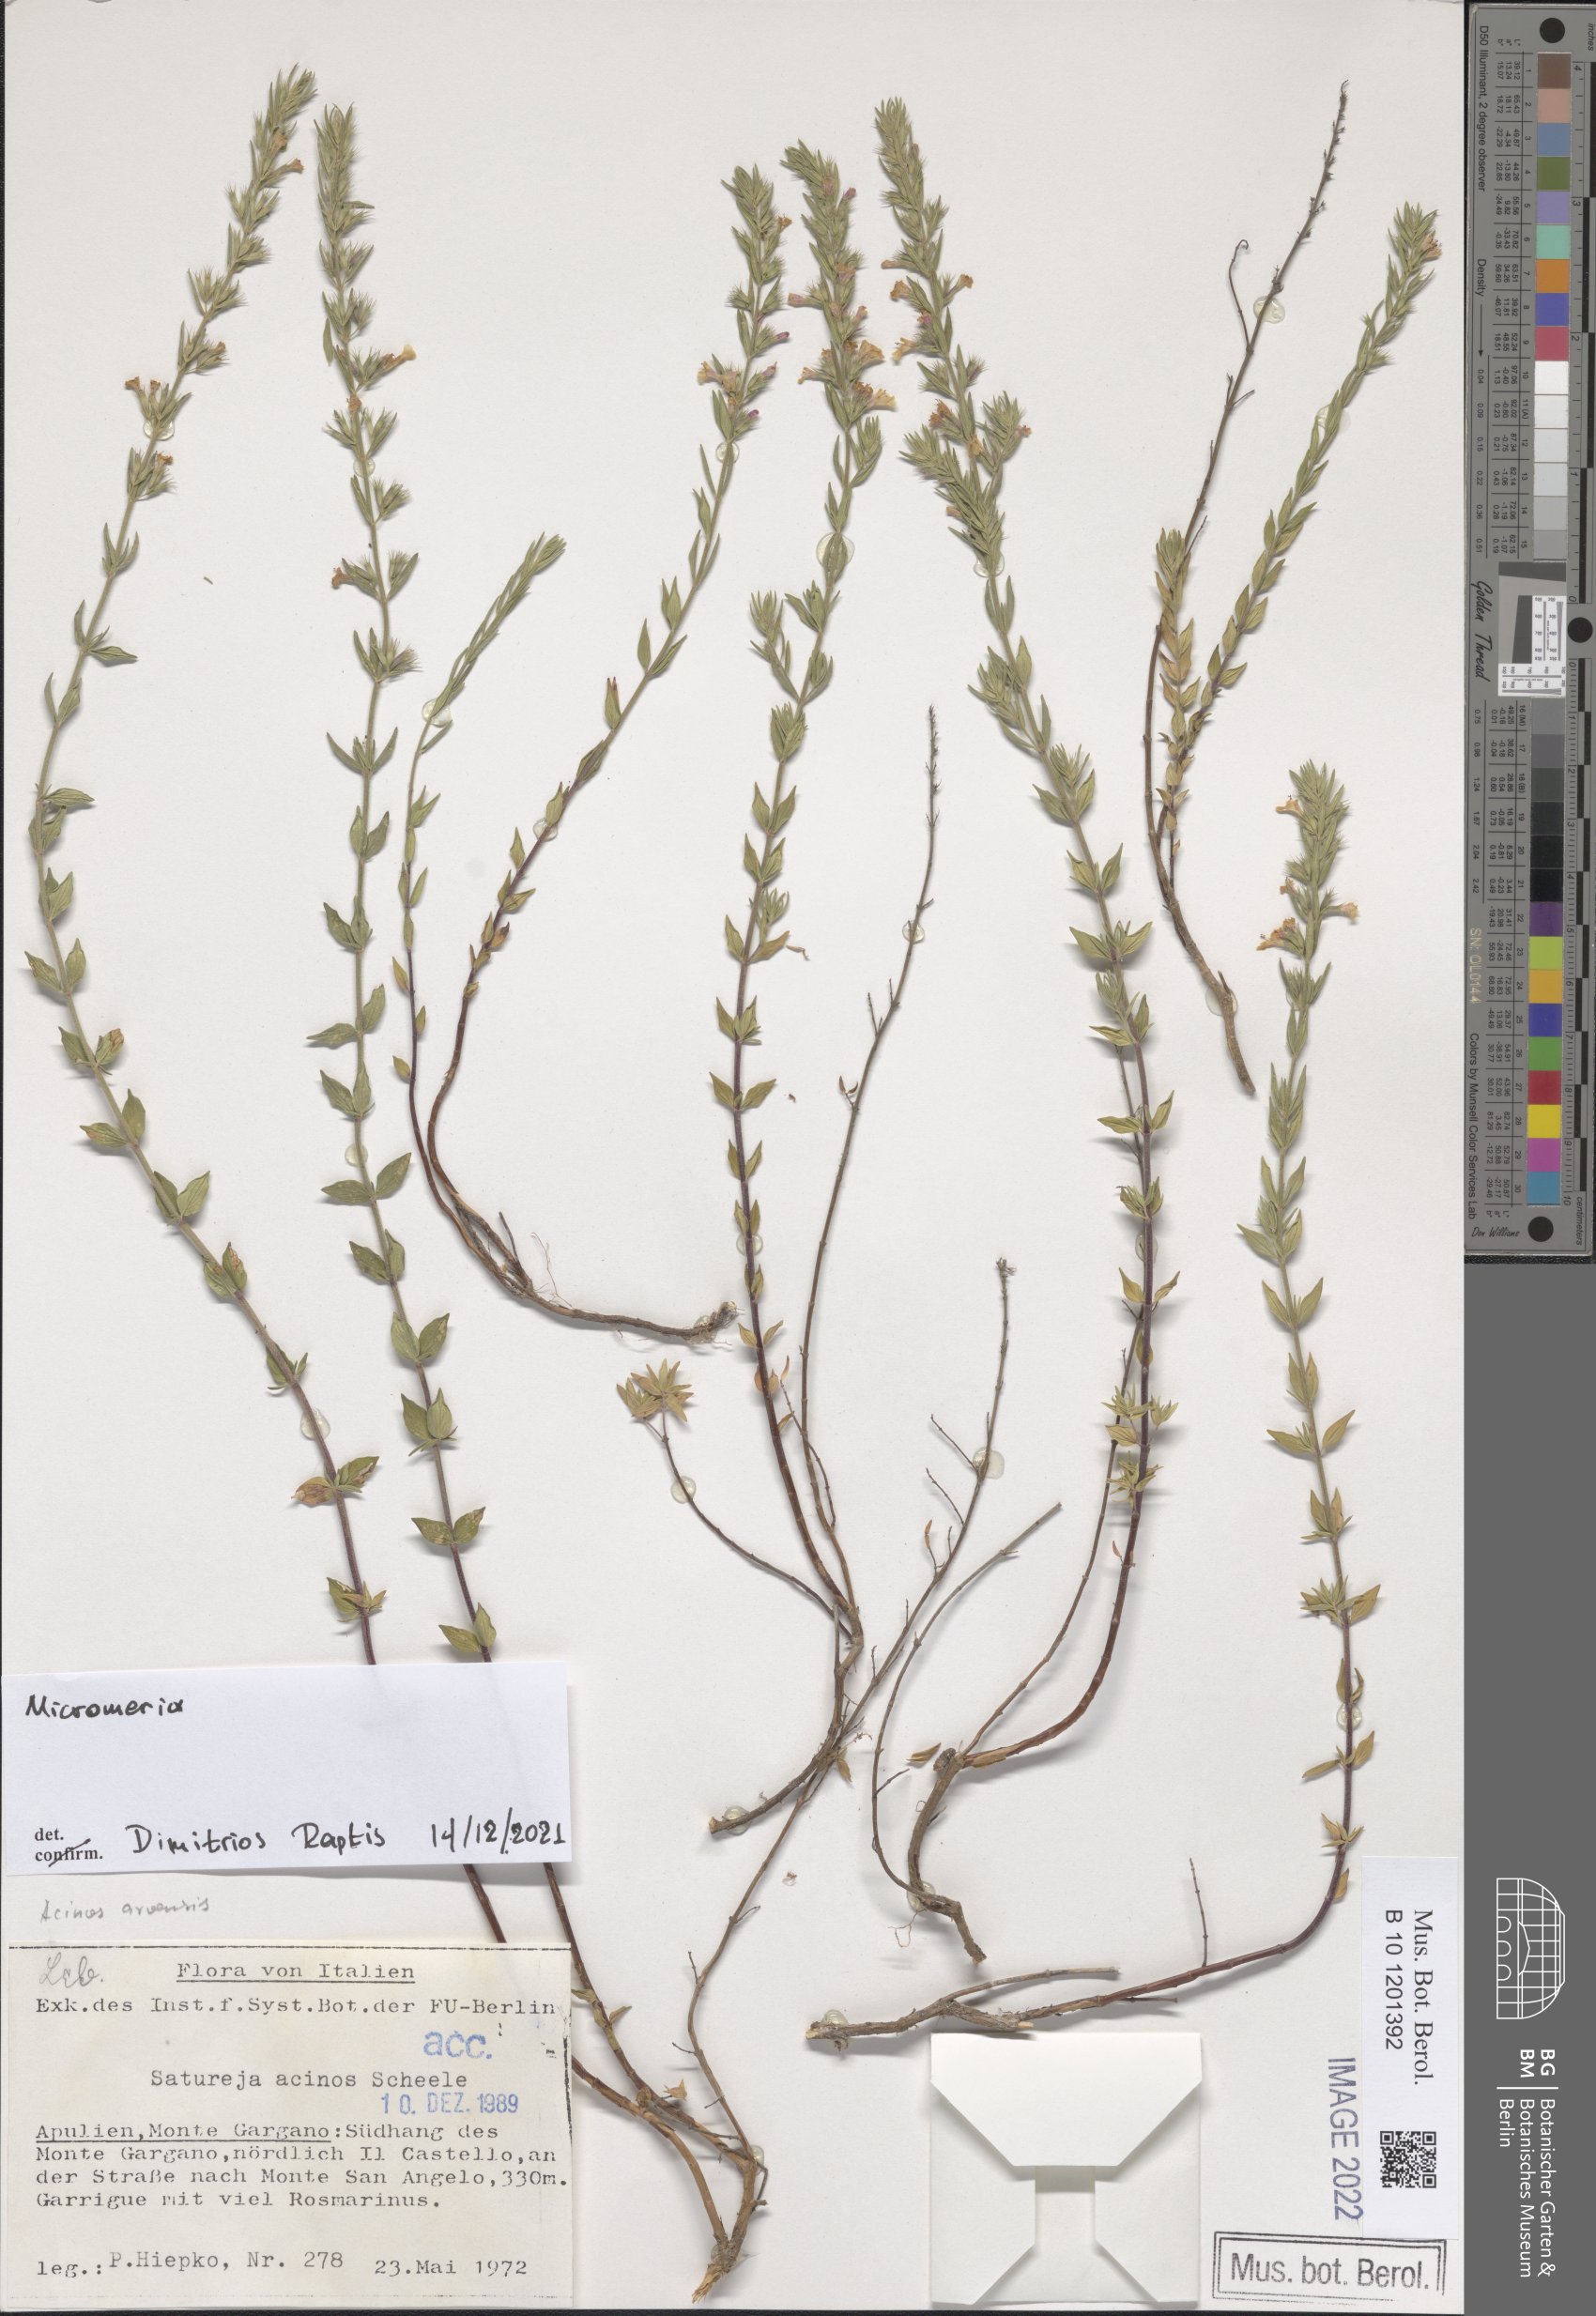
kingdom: Plantae
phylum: Tracheophyta
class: Magnoliopsida
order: Lamiales
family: Lamiaceae
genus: Micromeria
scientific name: Micromeria
